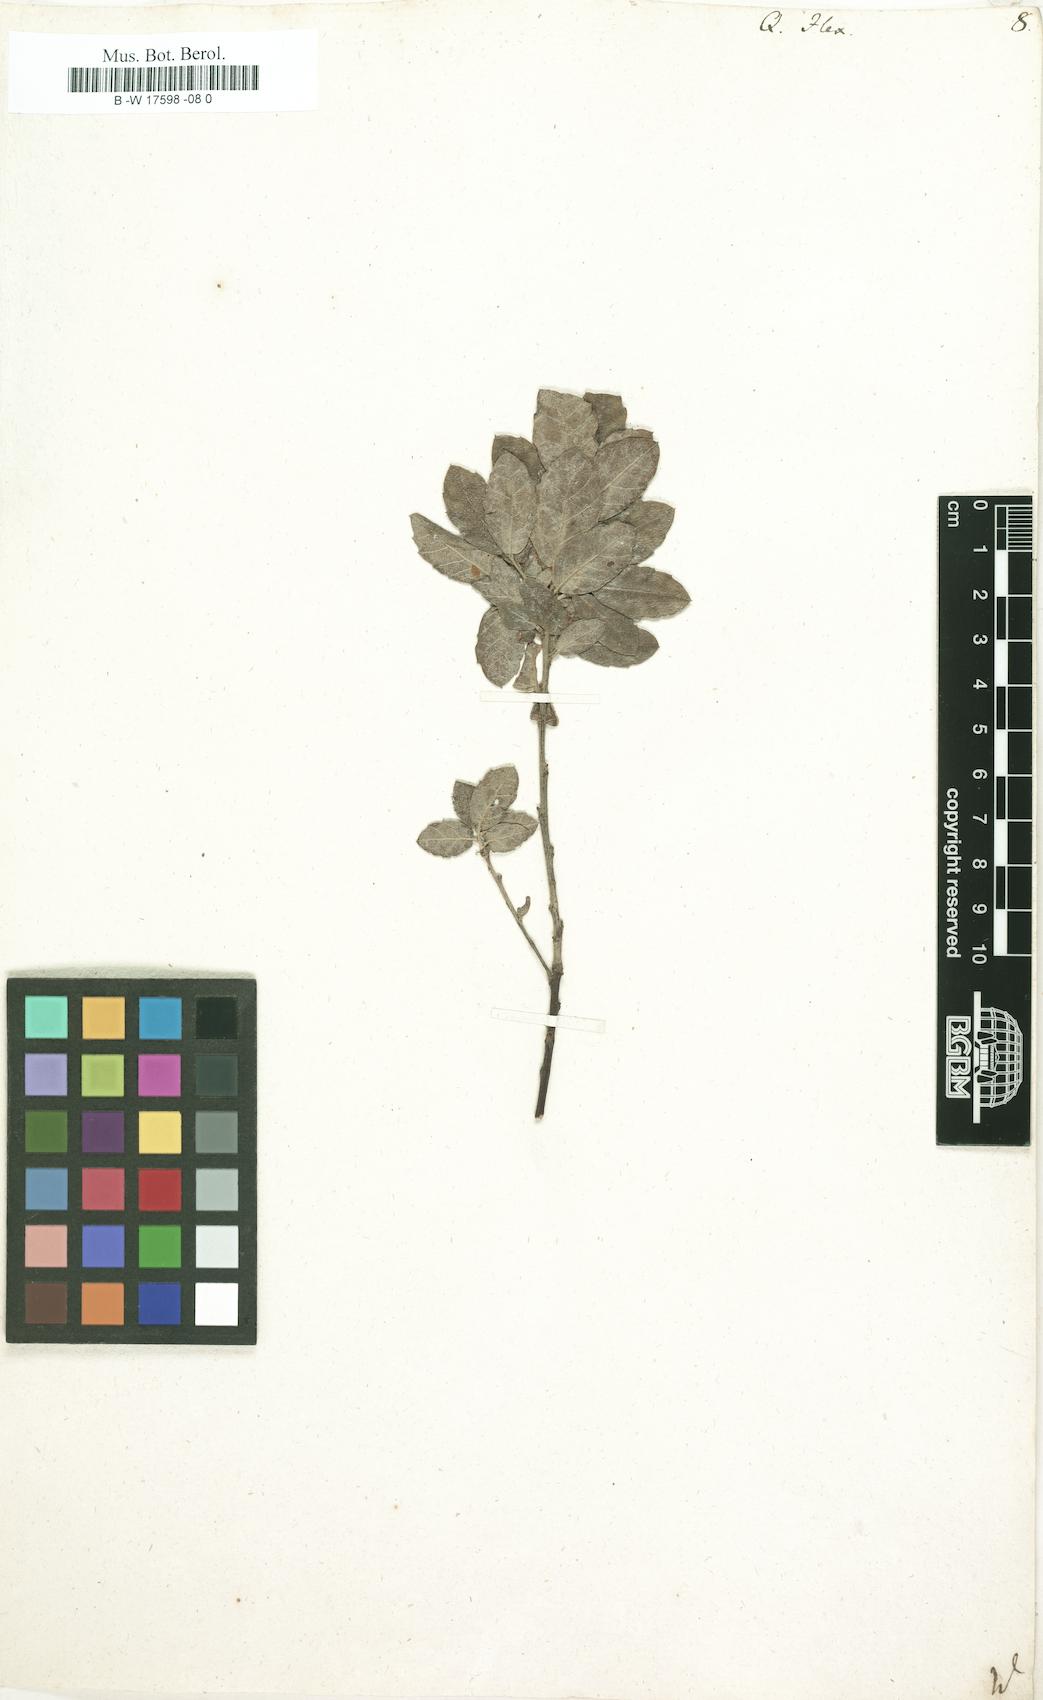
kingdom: Plantae
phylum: Tracheophyta
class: Magnoliopsida
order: Fagales
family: Fagaceae
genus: Quercus
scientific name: Quercus ilex
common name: Evergreen oak
